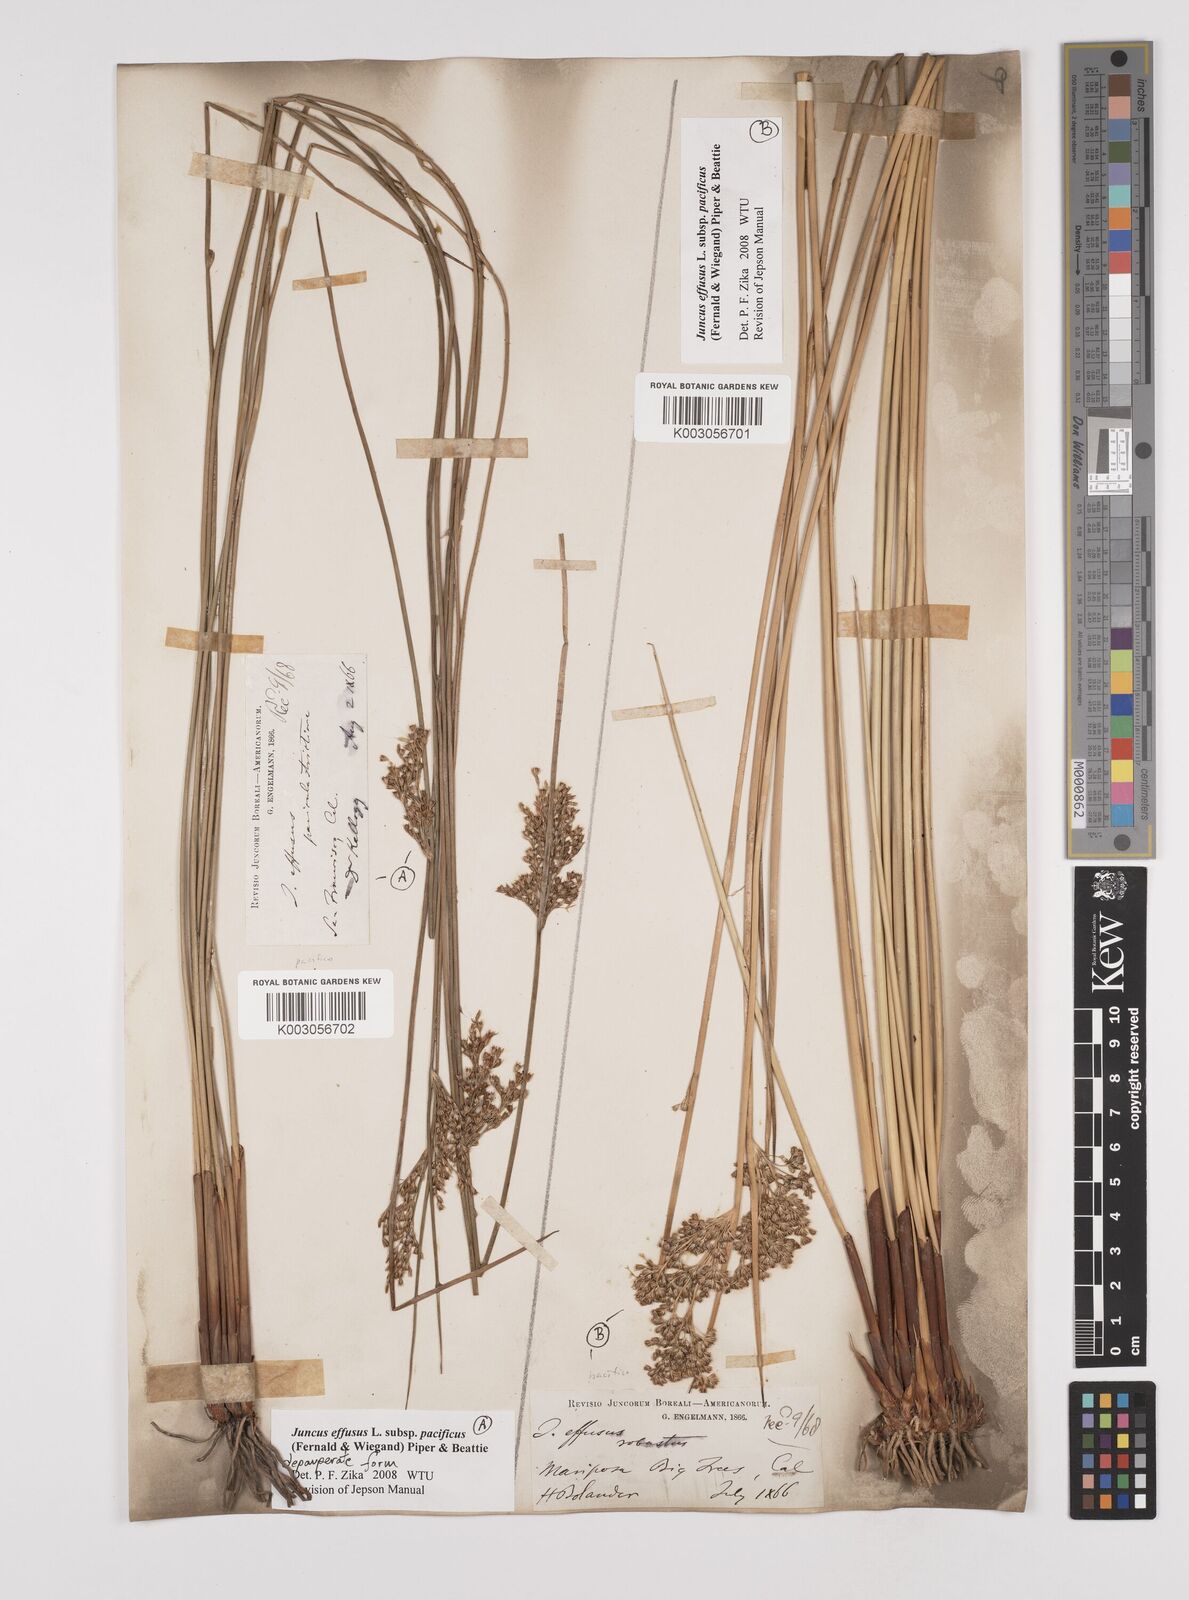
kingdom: Plantae
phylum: Tracheophyta
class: Liliopsida
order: Poales
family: Juncaceae
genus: Juncus
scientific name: Juncus effusus
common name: Soft rush
